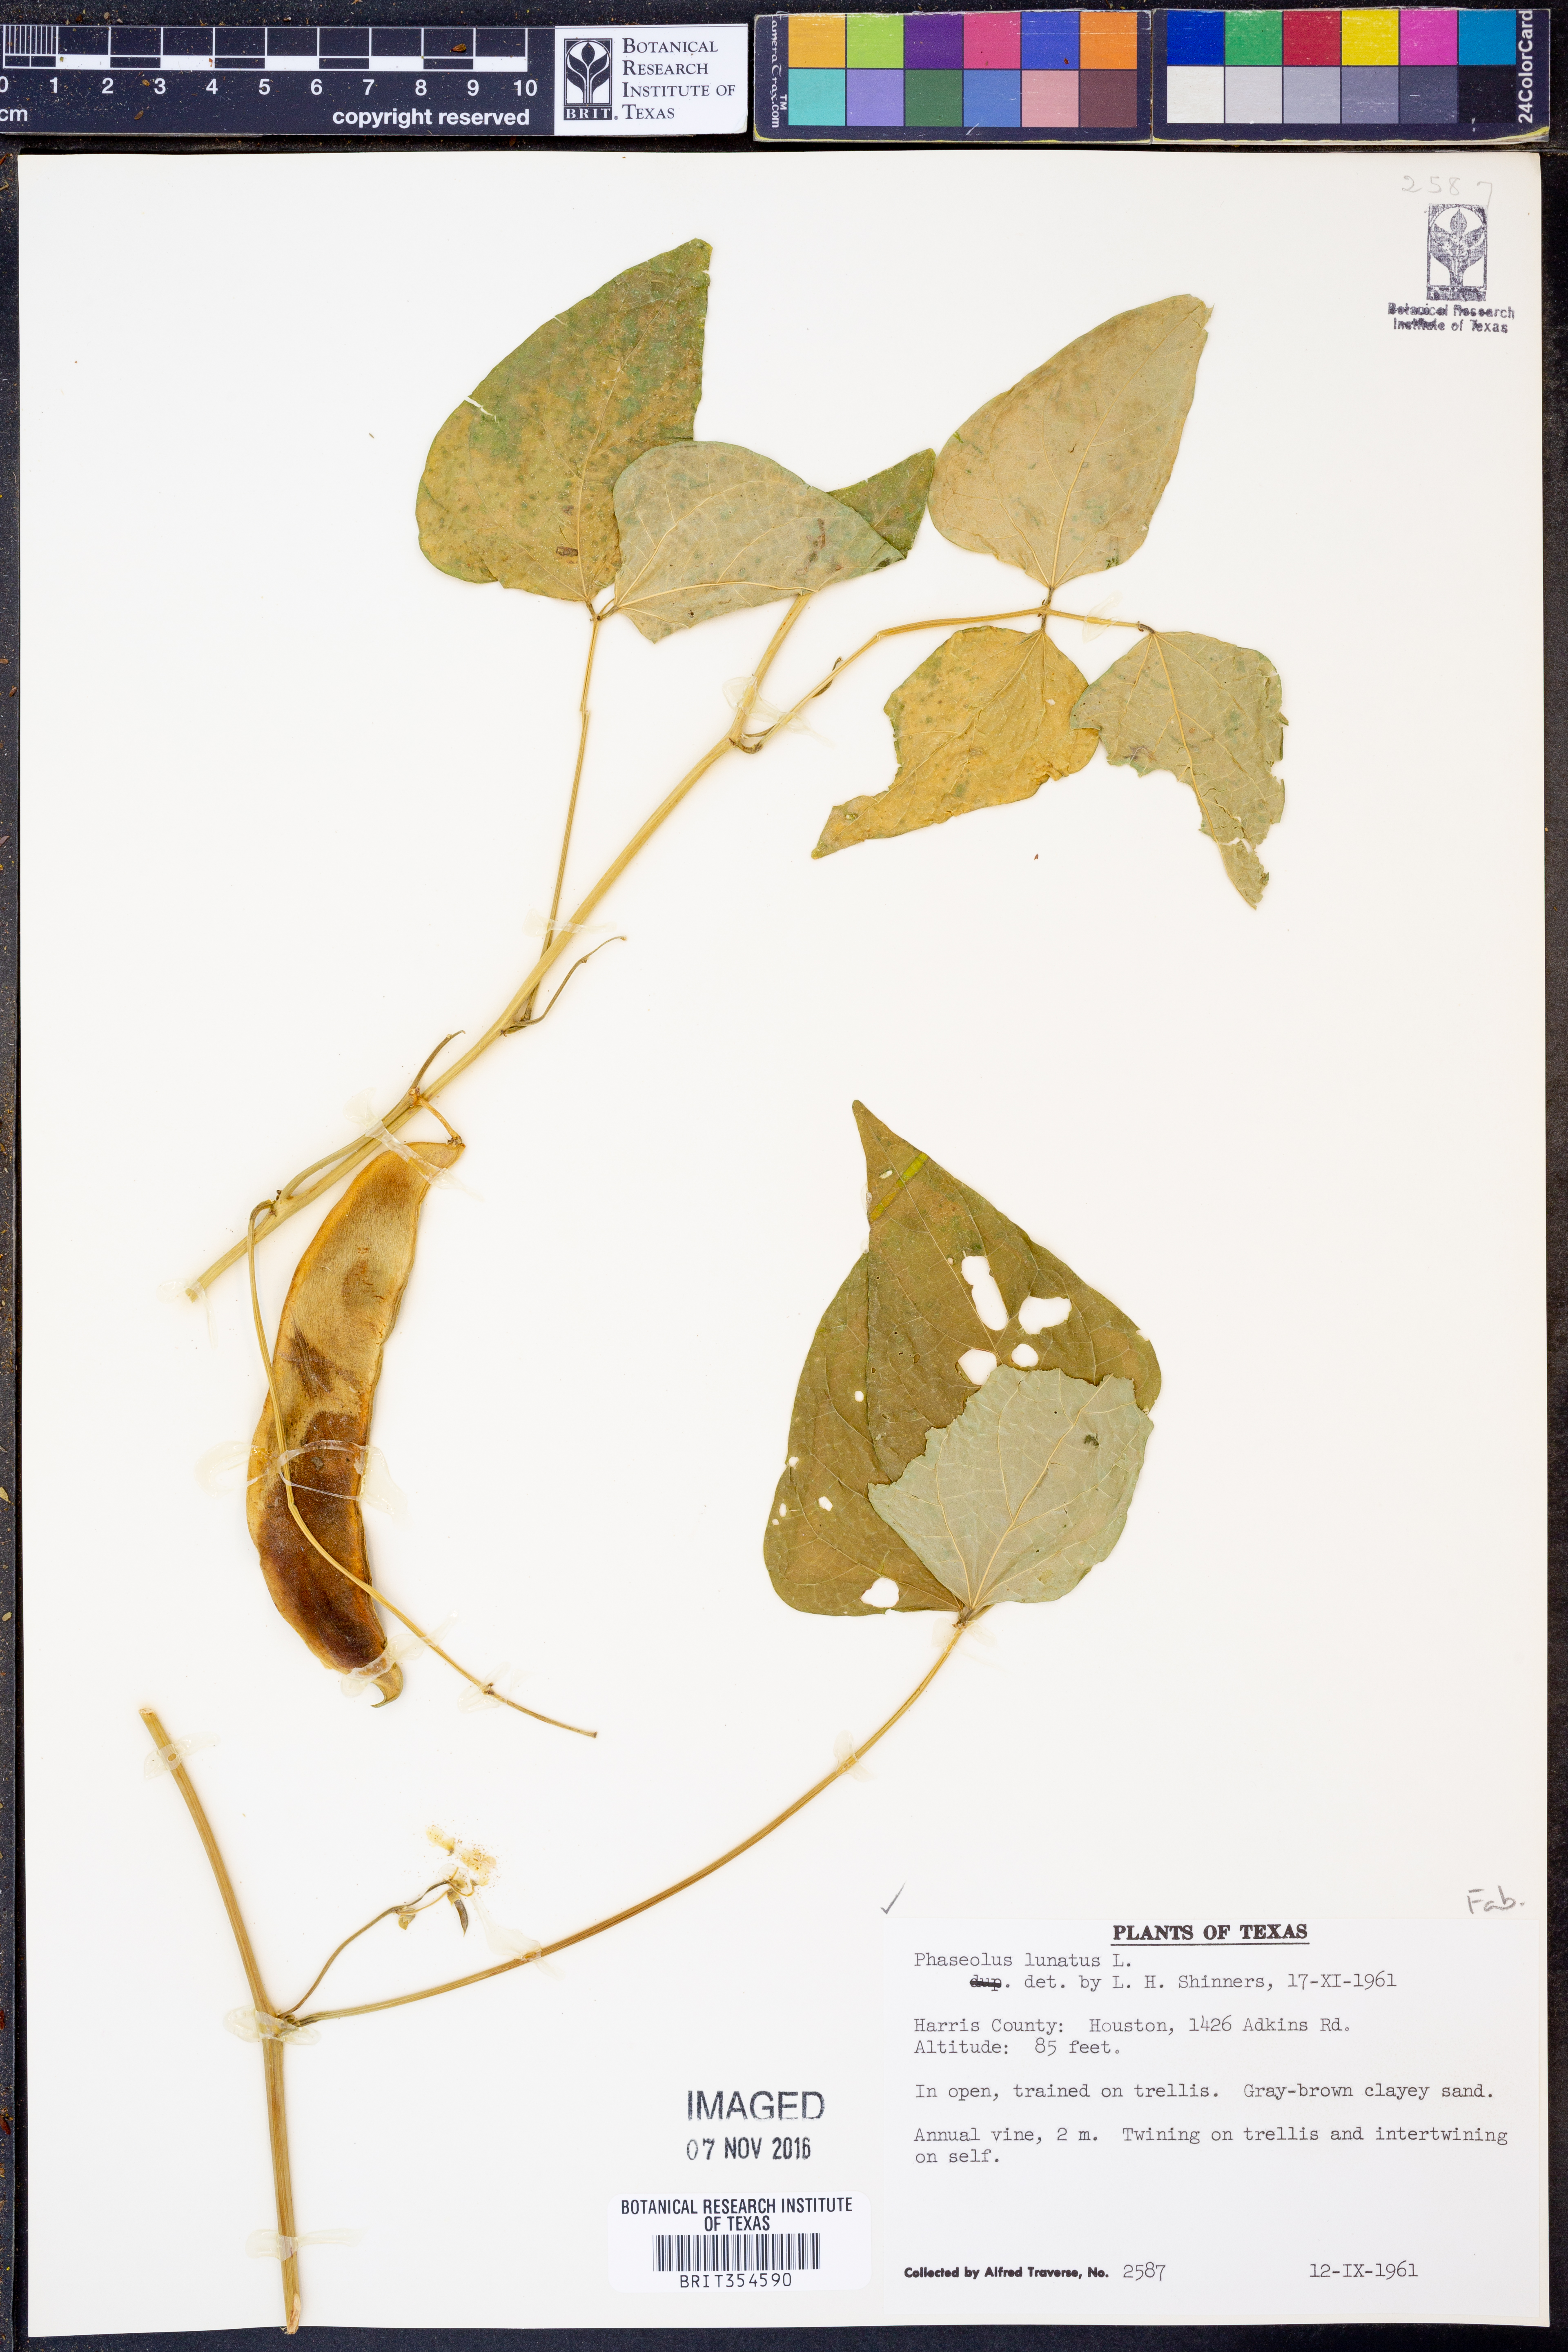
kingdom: Plantae
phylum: Tracheophyta
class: Magnoliopsida
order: Fabales
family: Fabaceae
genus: Phaseolus
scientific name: Phaseolus lunatus
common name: Sieva bean
